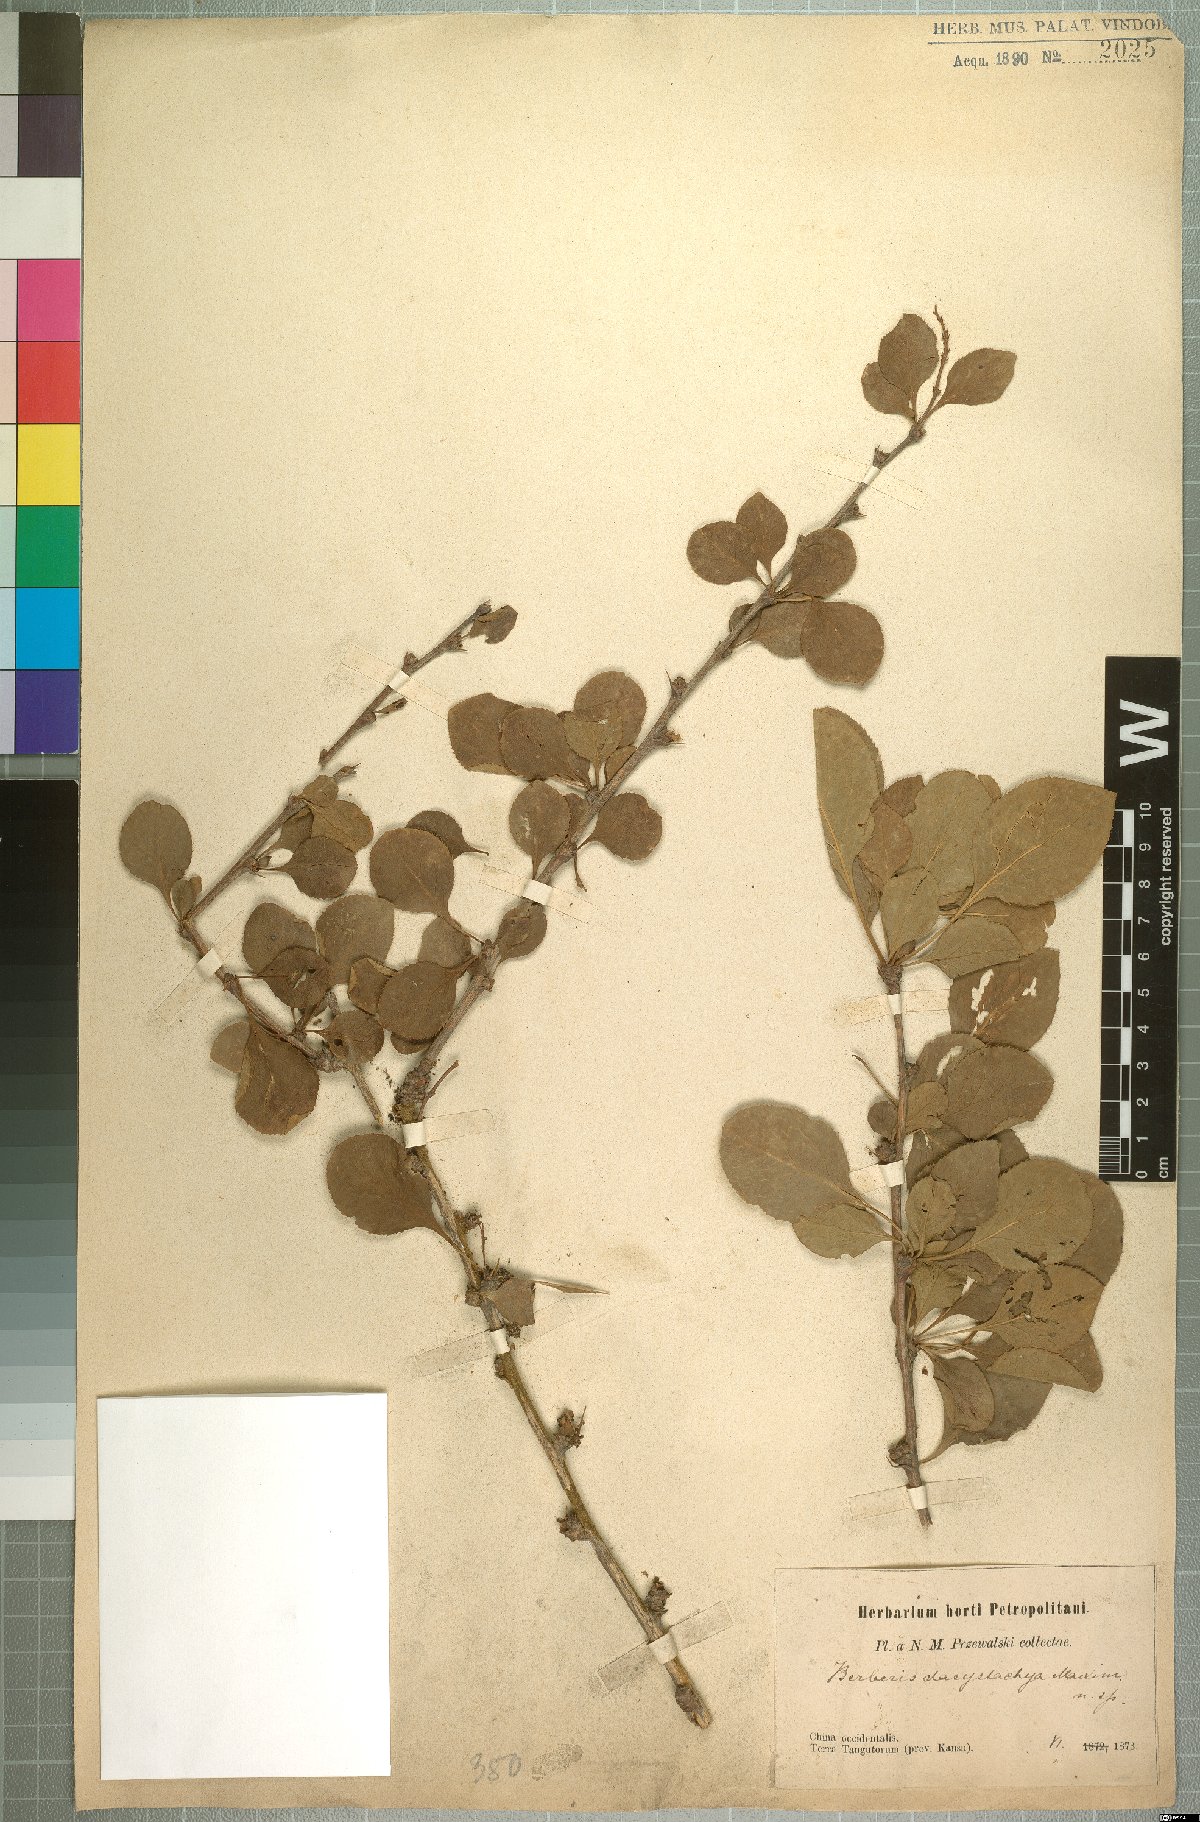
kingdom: Plantae
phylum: Tracheophyta
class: Magnoliopsida
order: Ranunculales
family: Berberidaceae
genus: Berberis
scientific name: Berberis dasystachya
